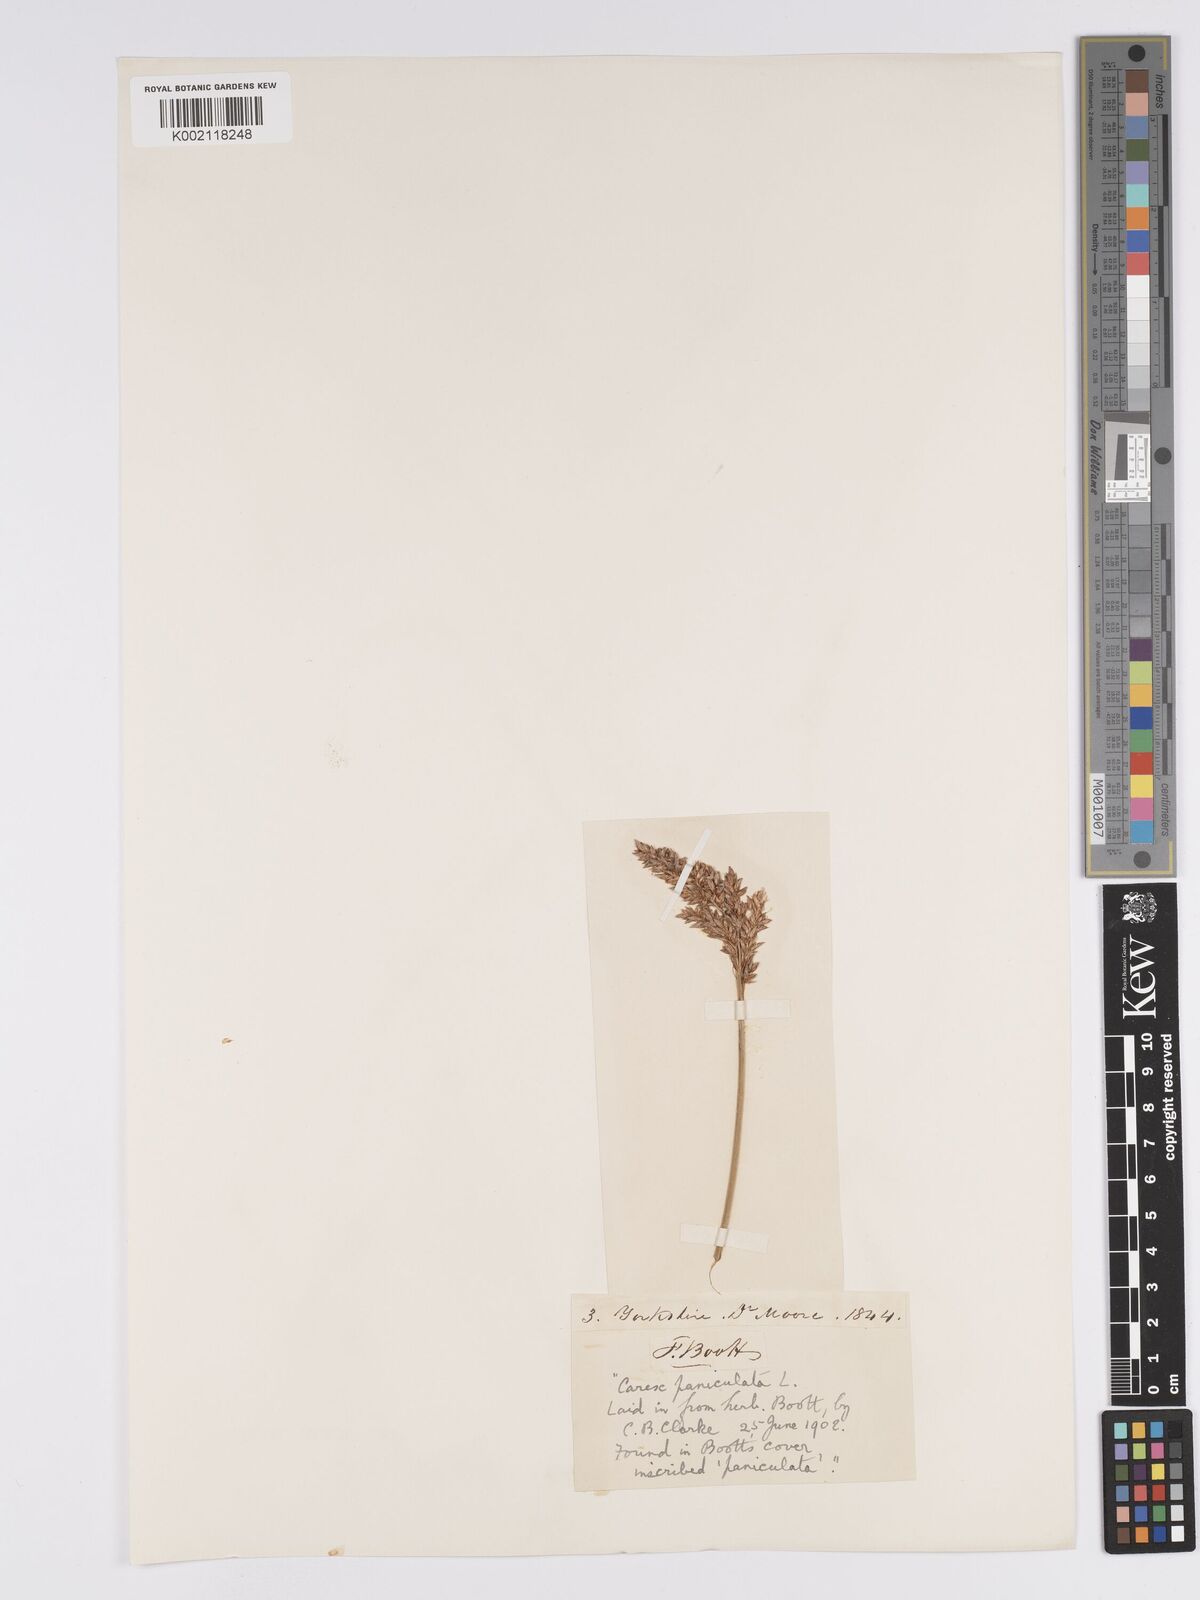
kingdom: Plantae
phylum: Tracheophyta
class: Liliopsida
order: Poales
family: Cyperaceae
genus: Carex
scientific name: Carex paniculata
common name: Greater tussock-sedge
